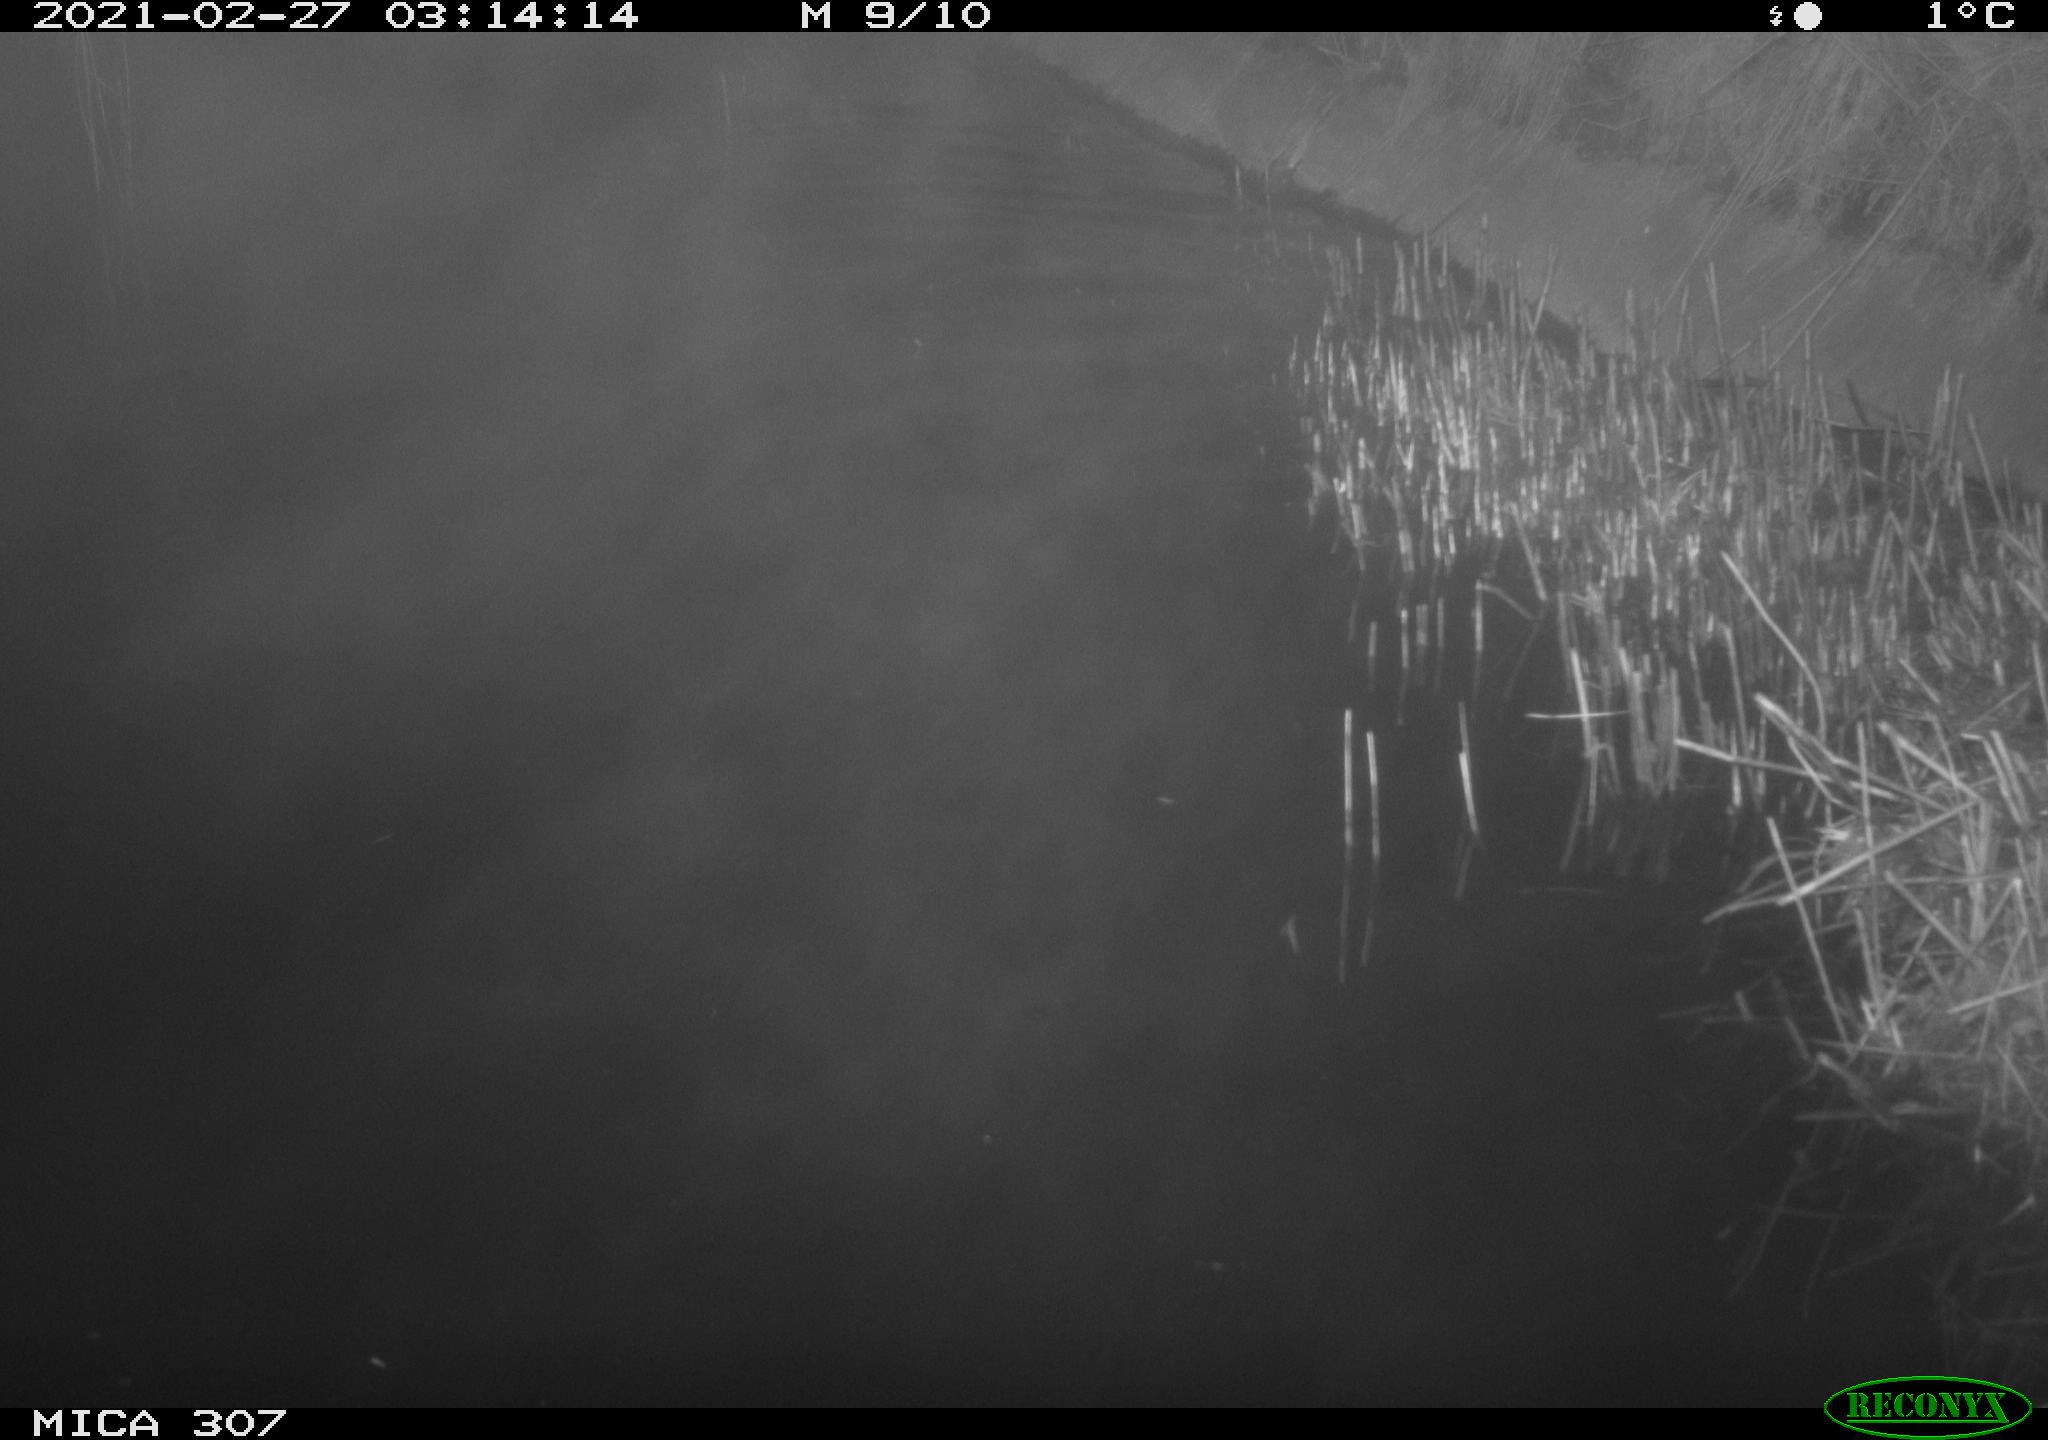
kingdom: Animalia
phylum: Chordata
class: Mammalia
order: Rodentia
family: Cricetidae
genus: Ondatra
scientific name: Ondatra zibethicus
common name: Muskrat
